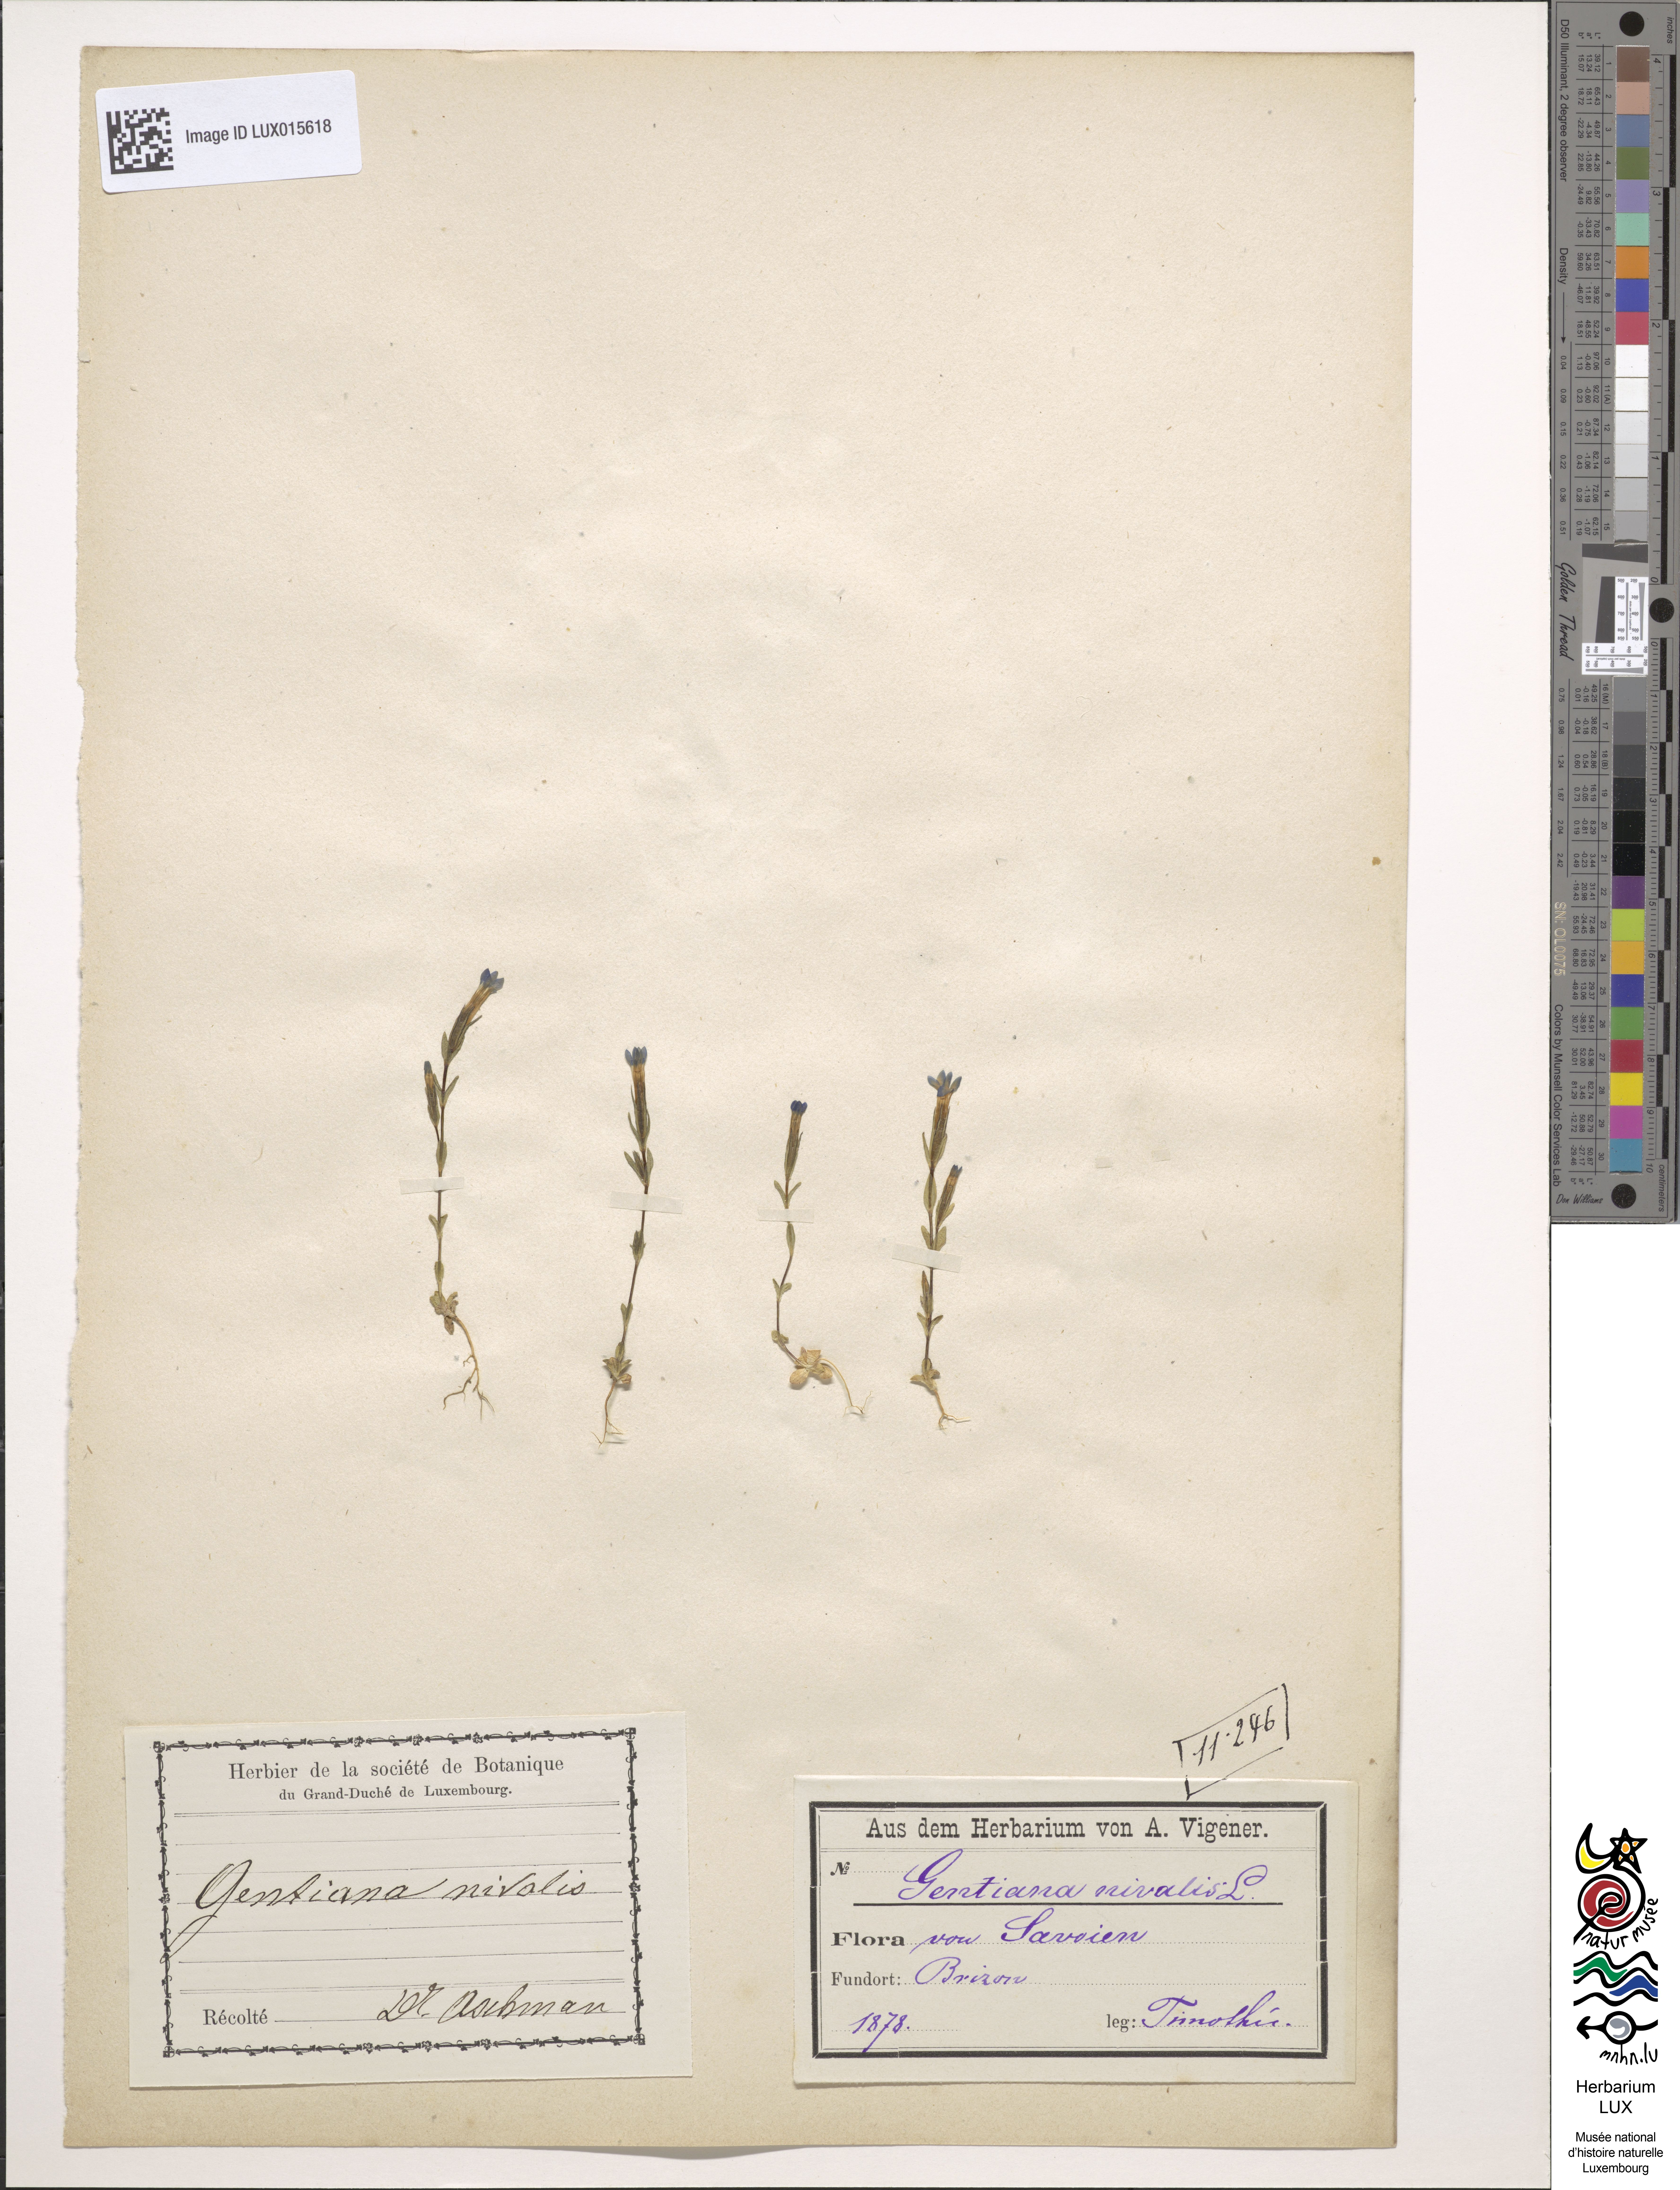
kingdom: Plantae
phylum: Tracheophyta
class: Magnoliopsida
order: Gentianales
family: Gentianaceae
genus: Gentiana
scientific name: Gentiana nivalis
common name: Alpine gentian
